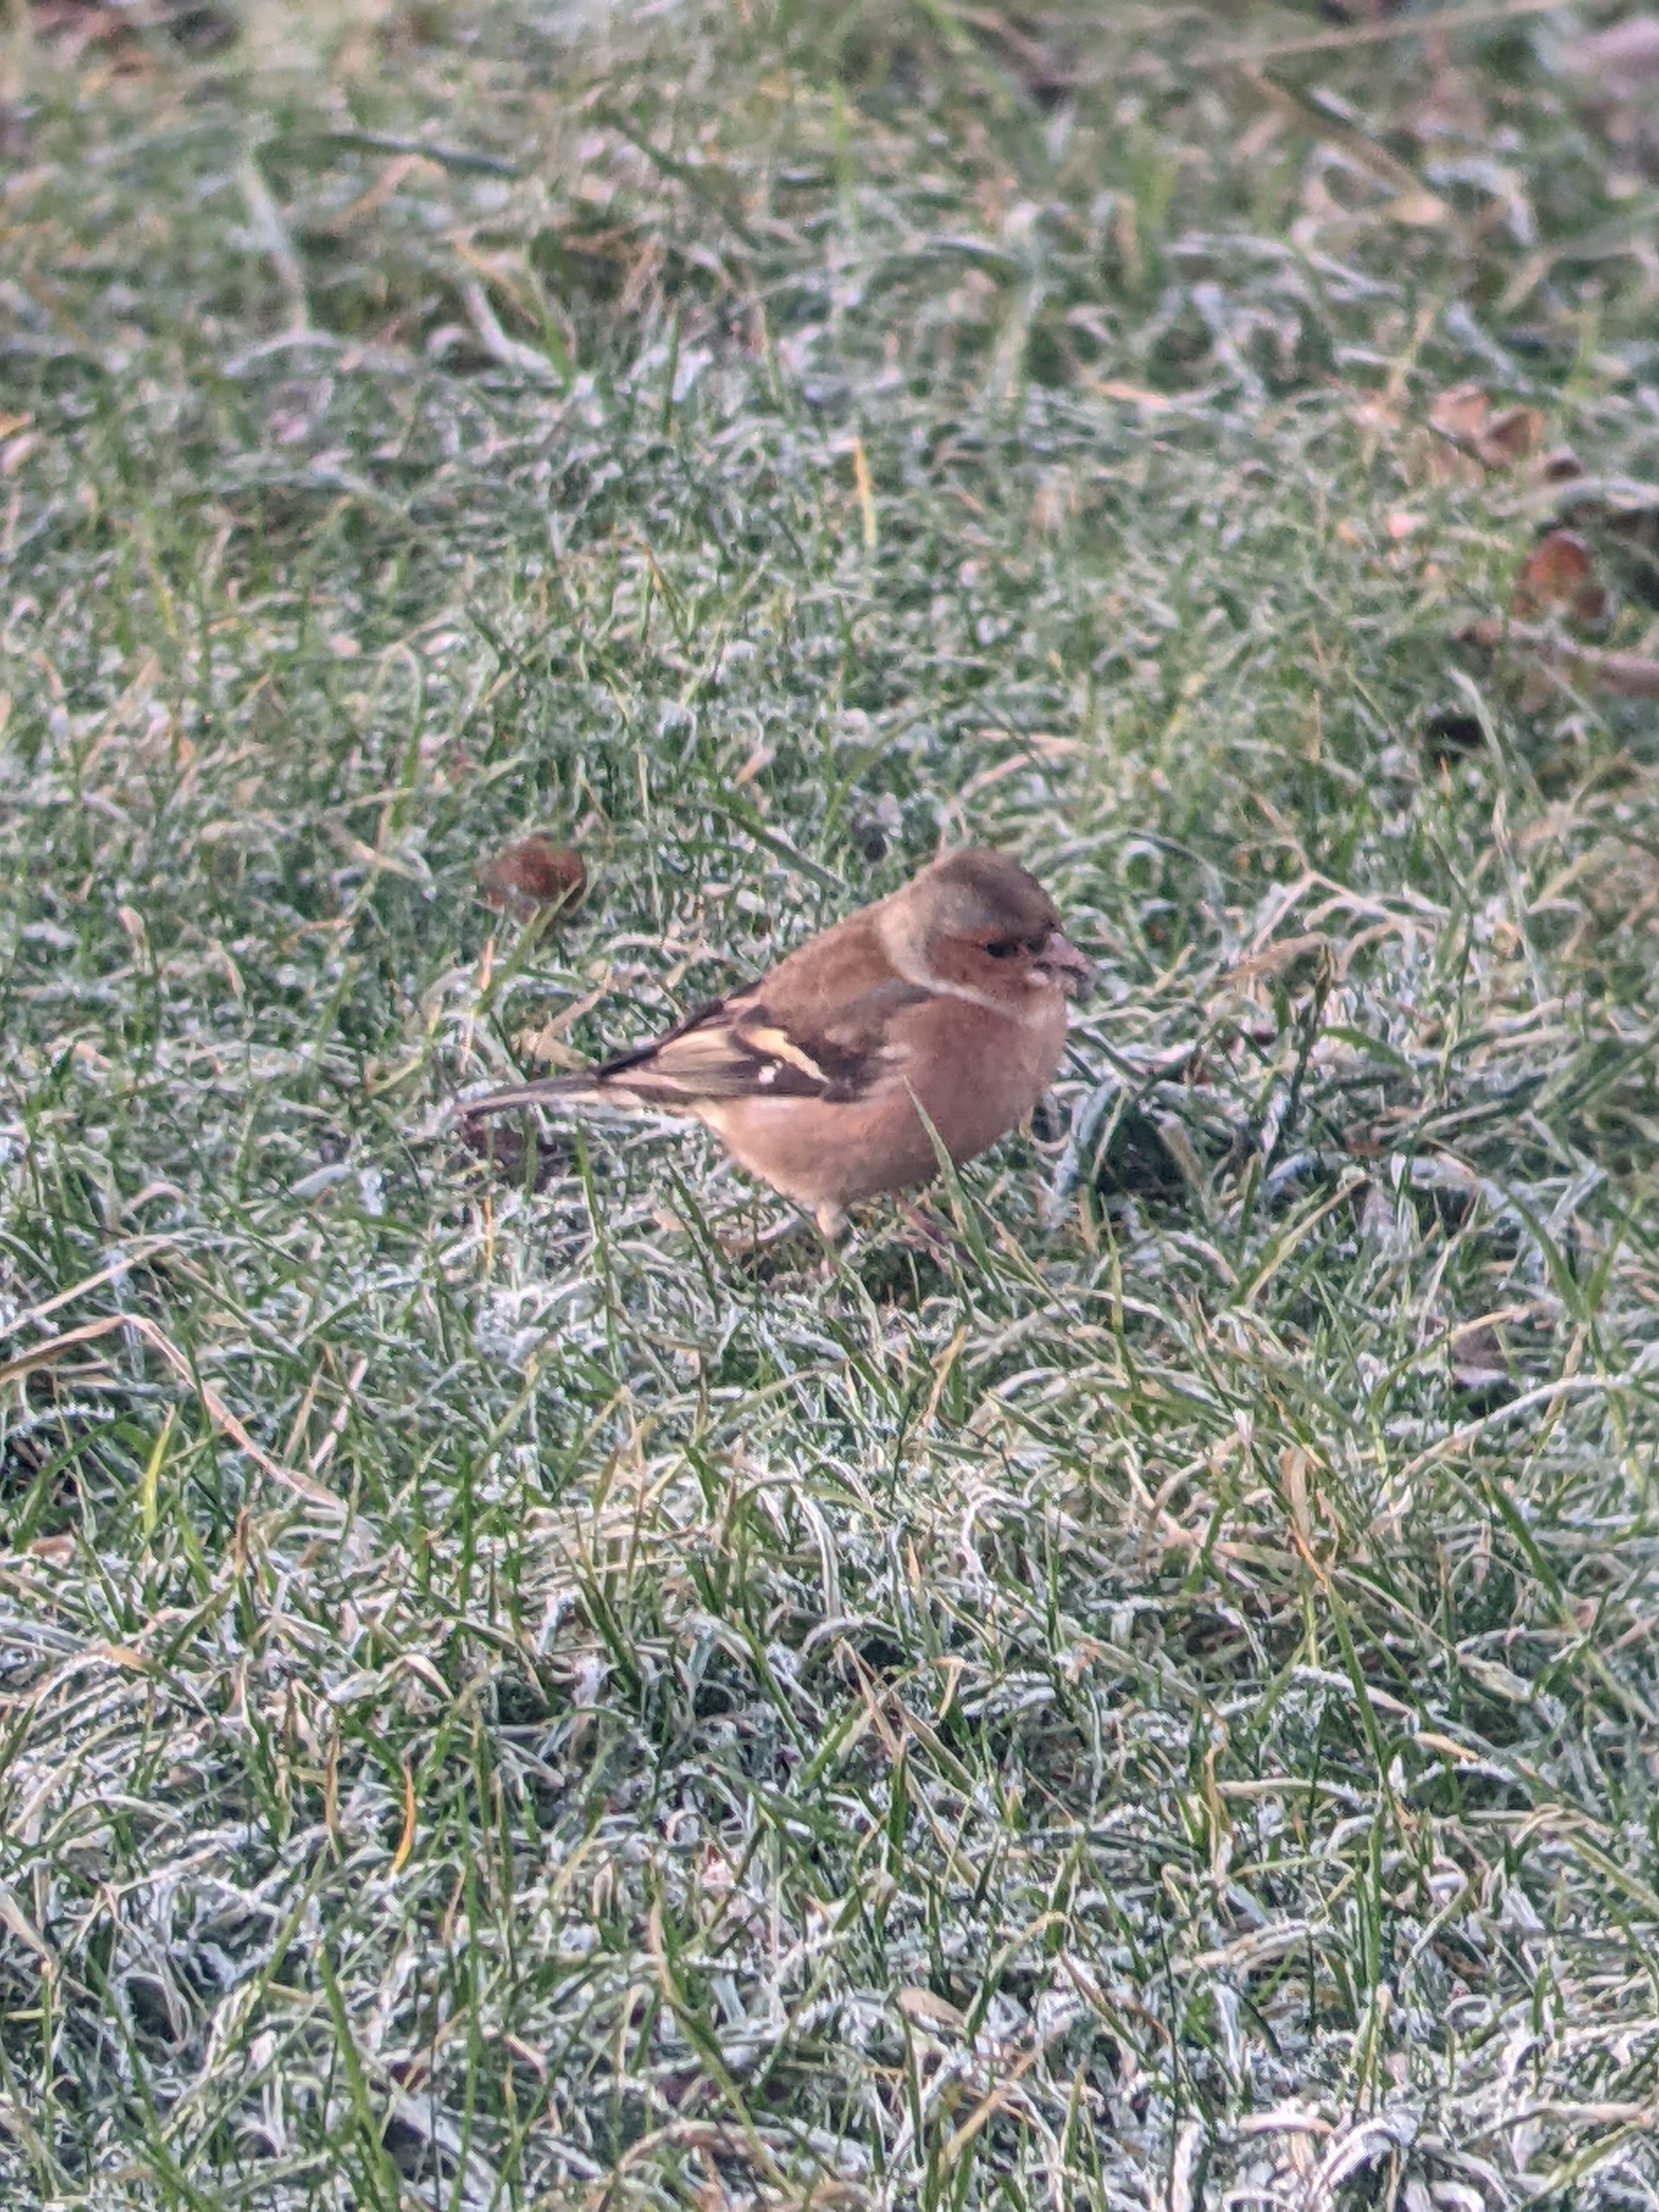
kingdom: Animalia
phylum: Chordata
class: Aves
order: Passeriformes
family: Fringillidae
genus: Fringilla
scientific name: Fringilla coelebs
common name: Bogfinke
